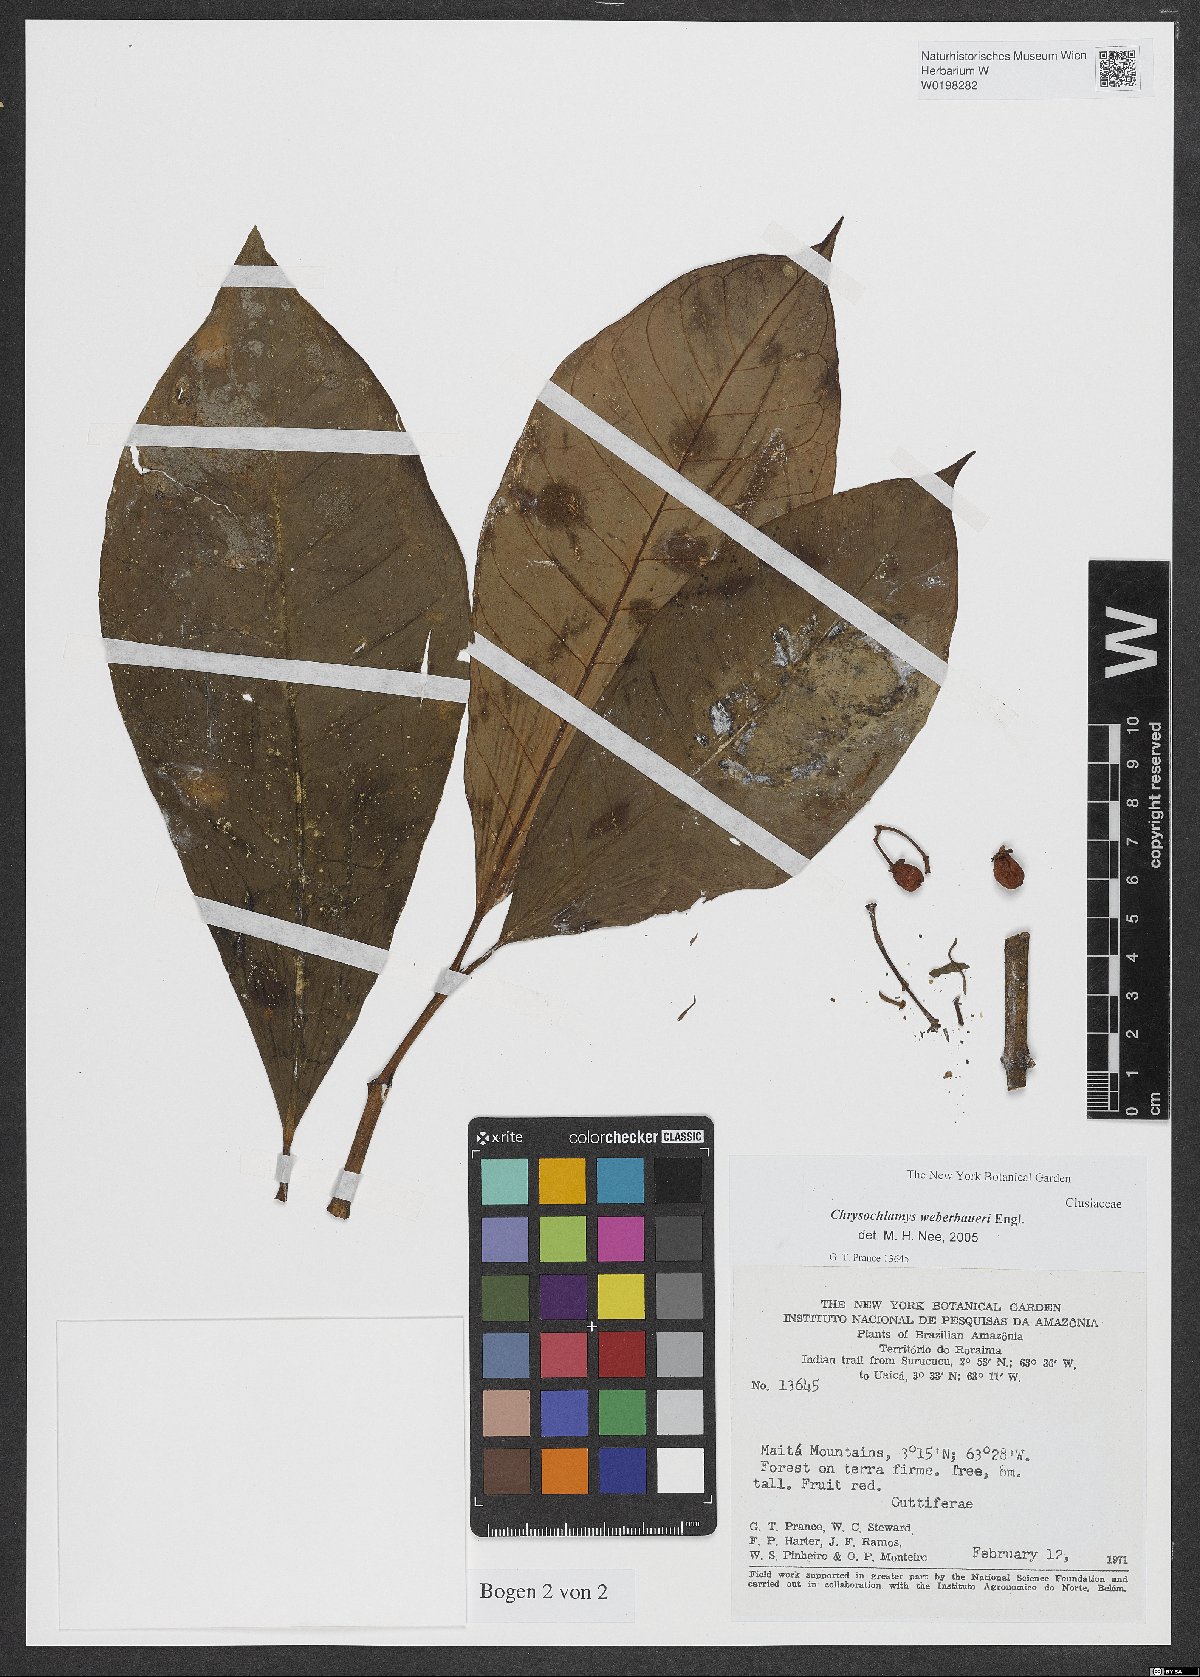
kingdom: Plantae
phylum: Tracheophyta
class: Magnoliopsida
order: Malpighiales
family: Clusiaceae
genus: Chrysochlamys
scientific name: Chrysochlamys weberbaueri
